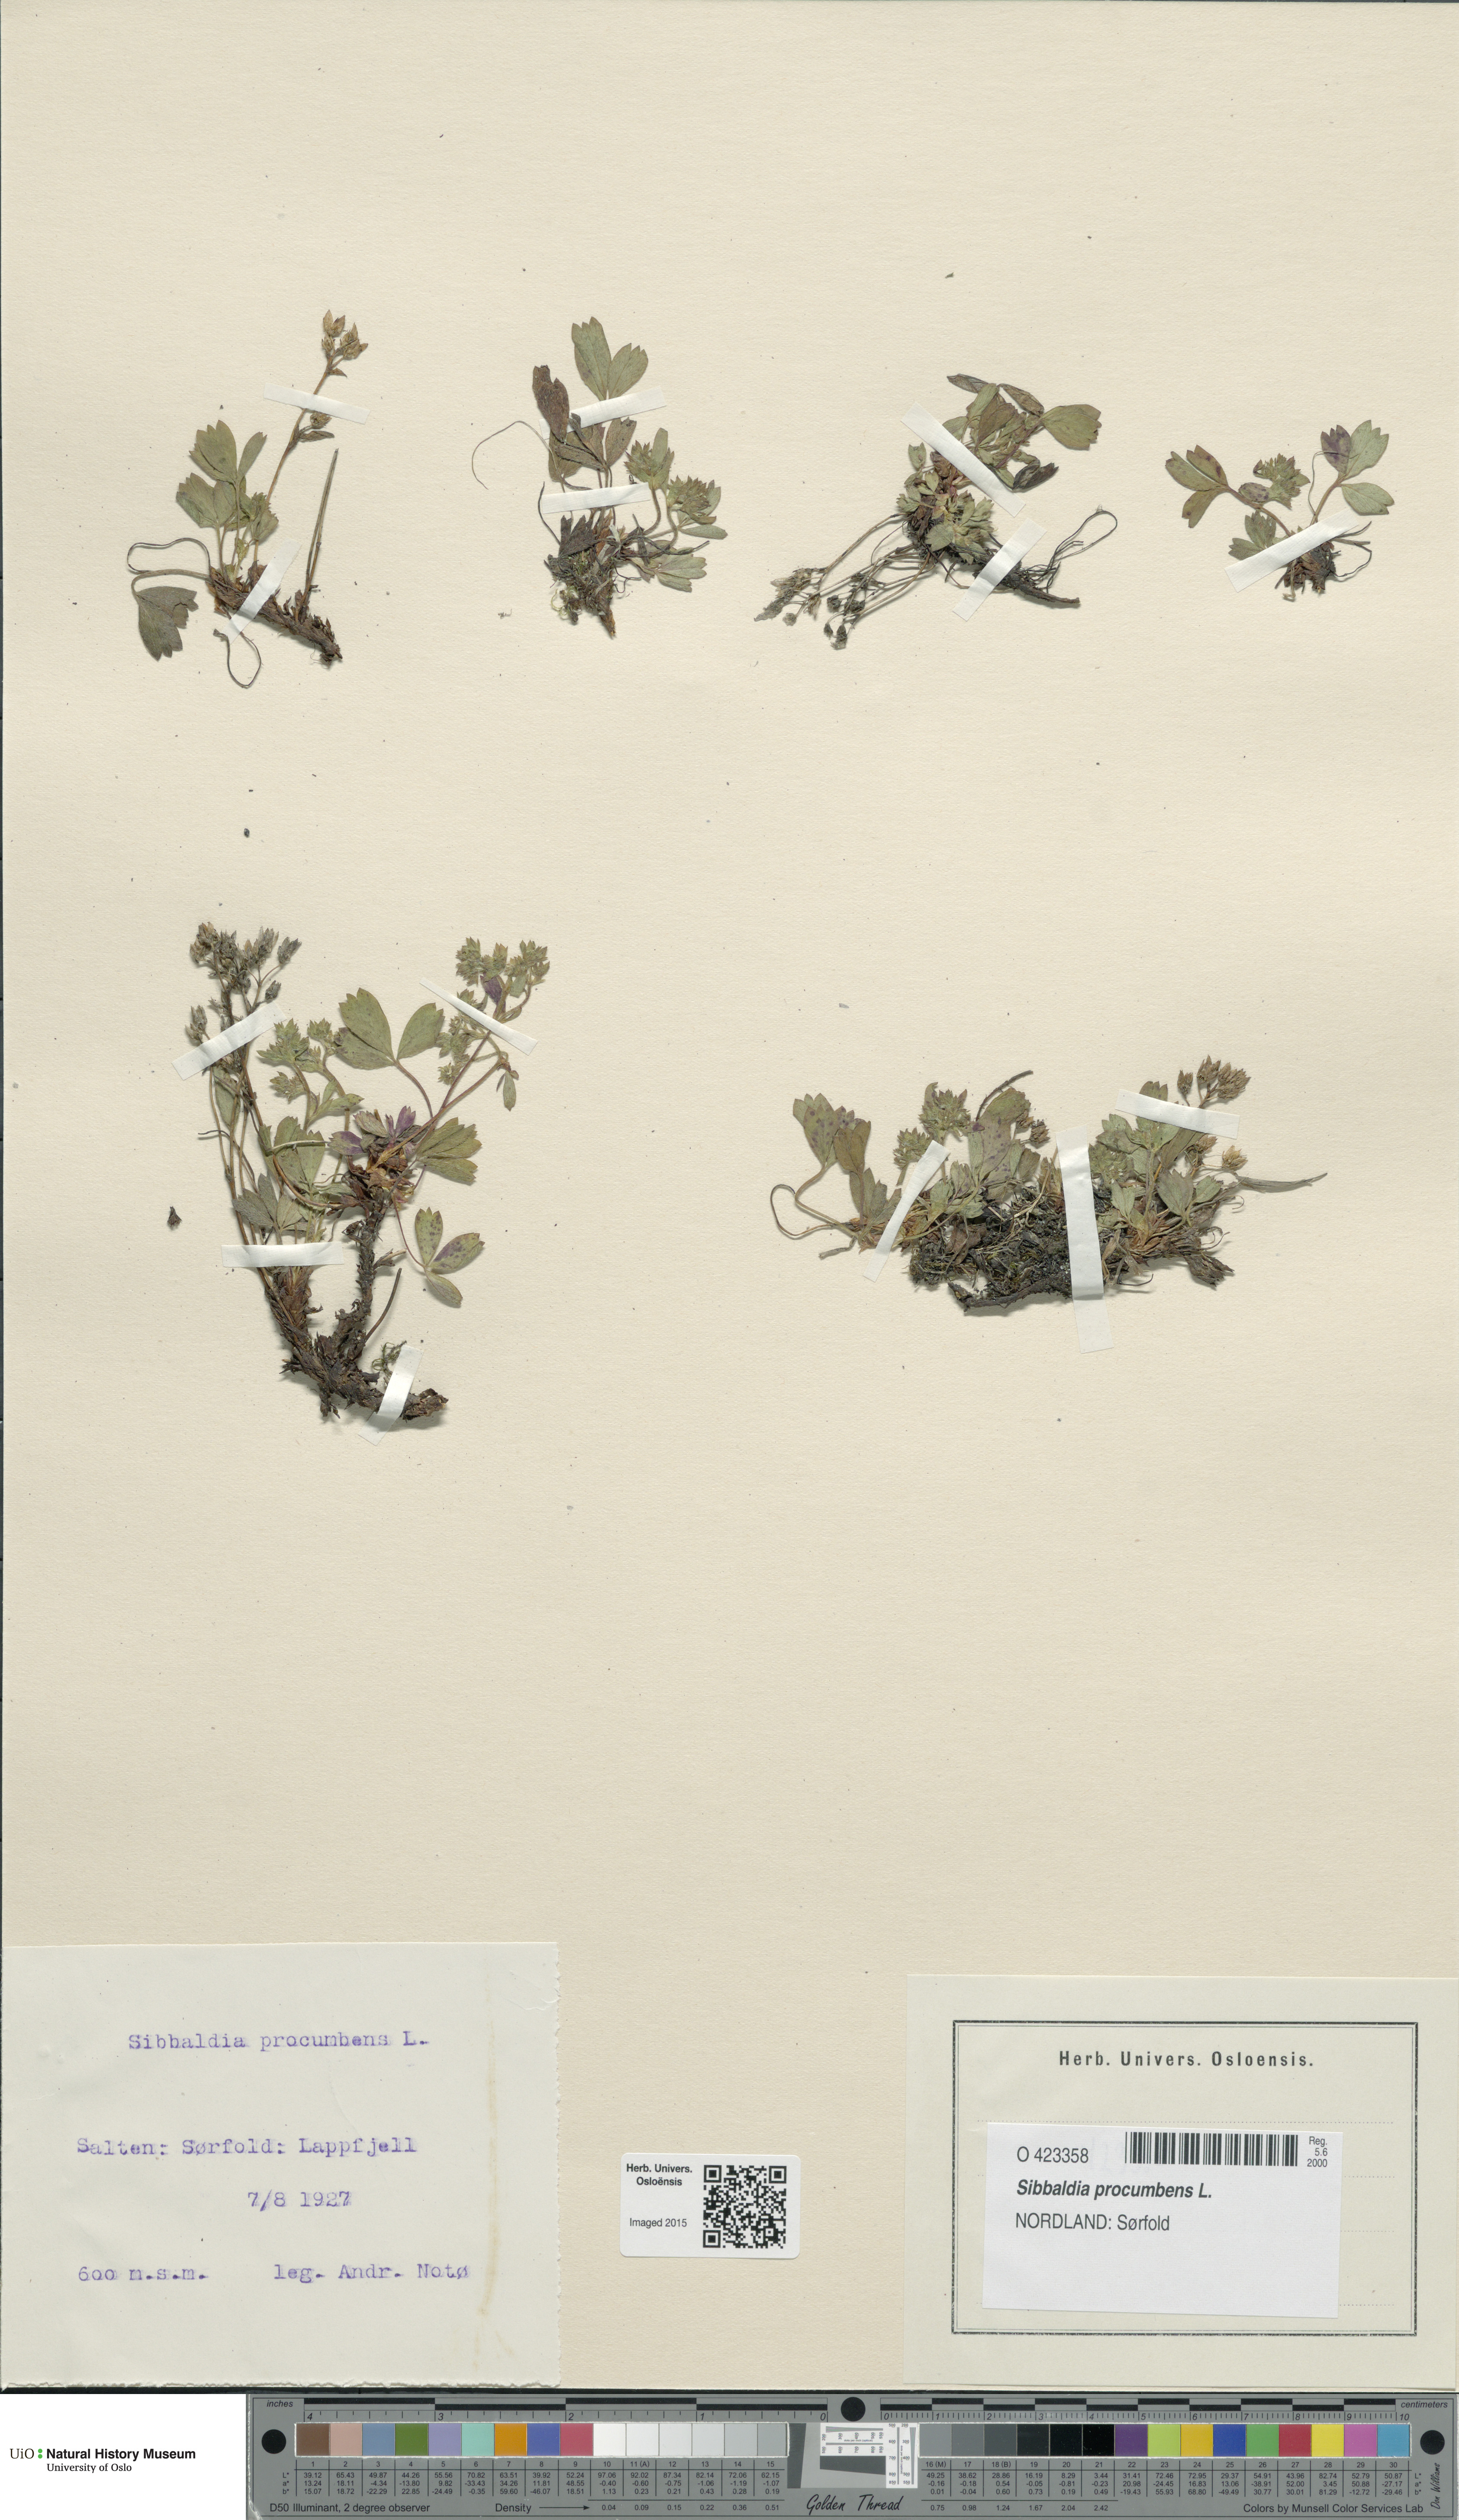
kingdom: Plantae
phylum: Tracheophyta
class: Magnoliopsida
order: Rosales
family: Rosaceae
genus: Sibbaldia
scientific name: Sibbaldia procumbens
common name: Creeping sibbaldia
